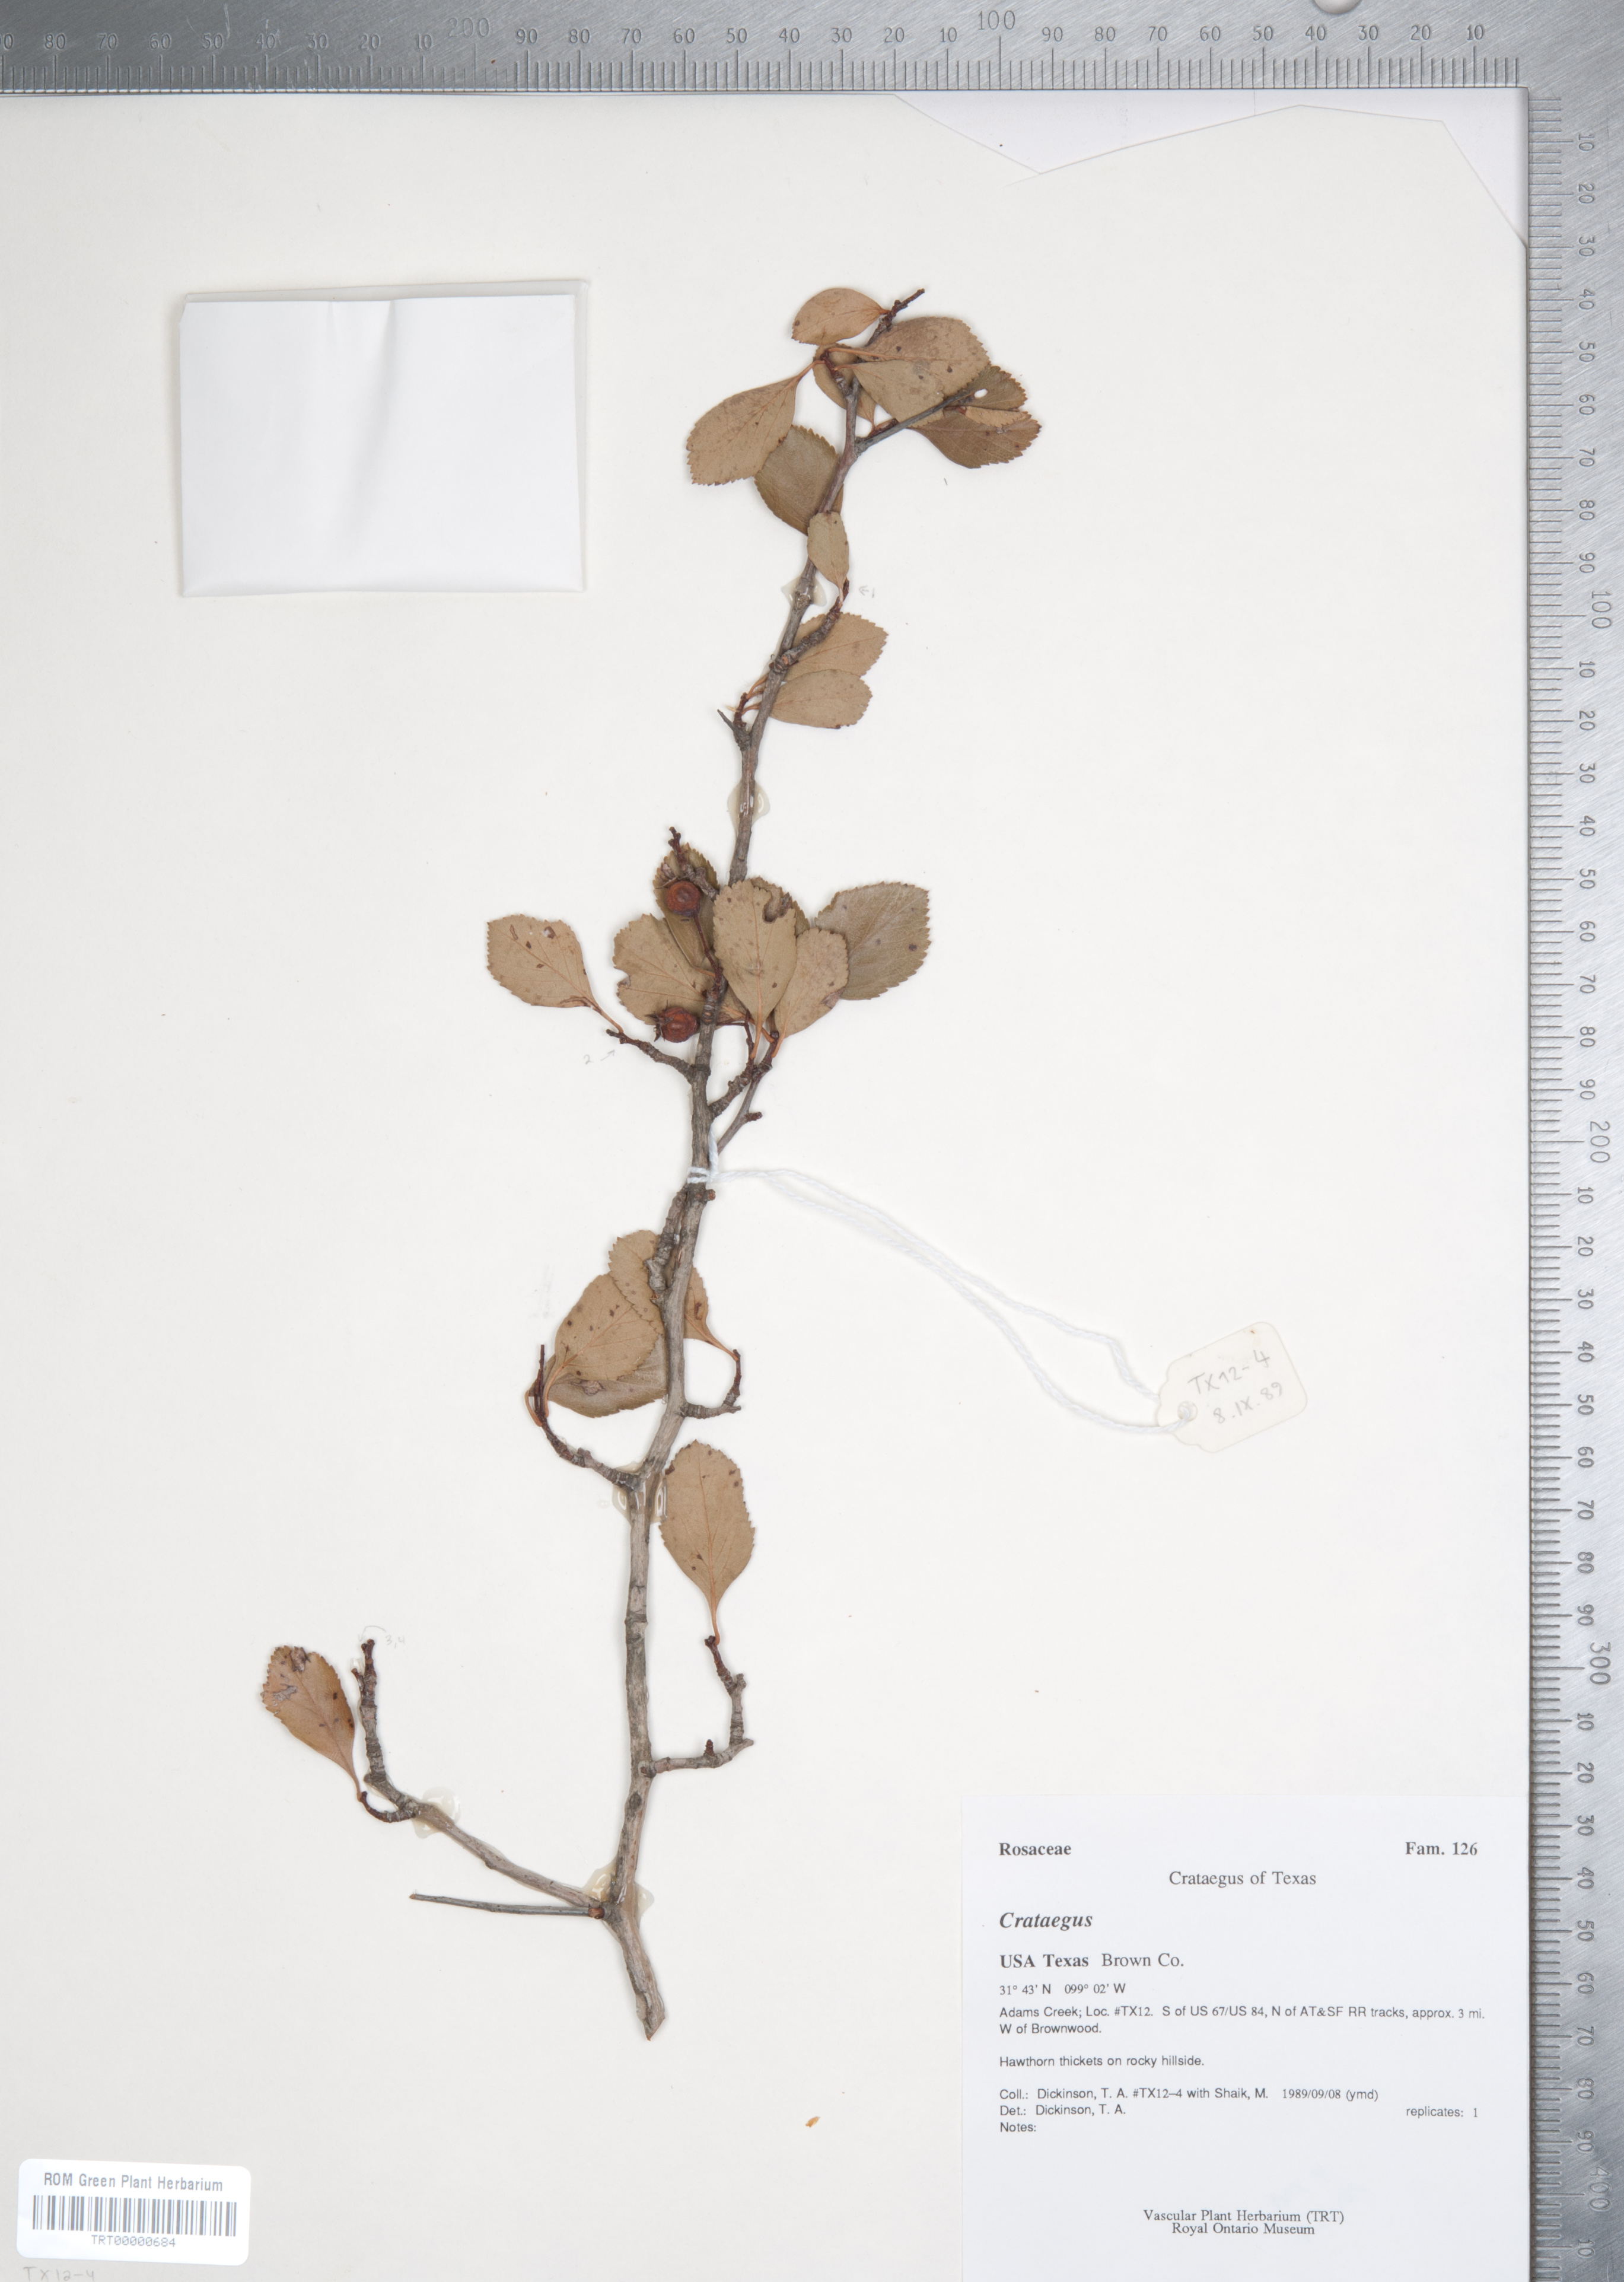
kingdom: Plantae
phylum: Tracheophyta
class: Magnoliopsida
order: Rosales
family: Rosaceae
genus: Crataegus
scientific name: Crataegus crus-galli
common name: Cockspurthorn
